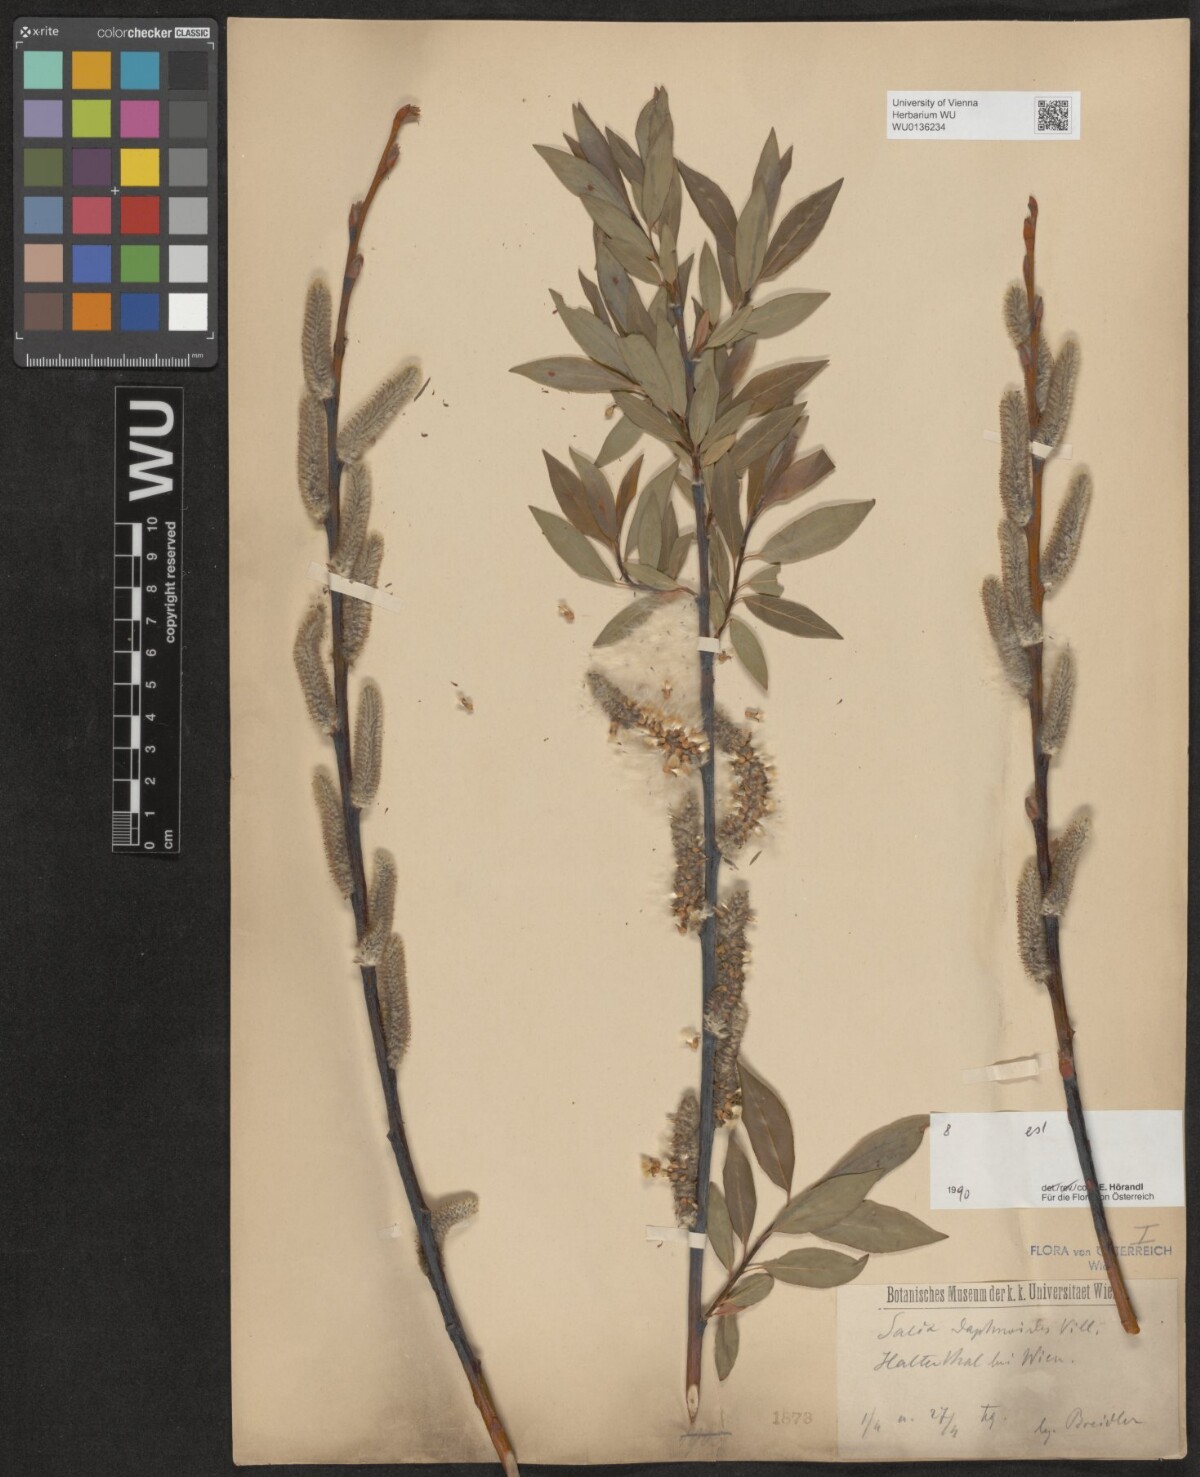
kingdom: Plantae
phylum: Tracheophyta
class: Magnoliopsida
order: Malpighiales
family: Salicaceae
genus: Salix
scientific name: Salix daphnoides
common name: European violet-willow
